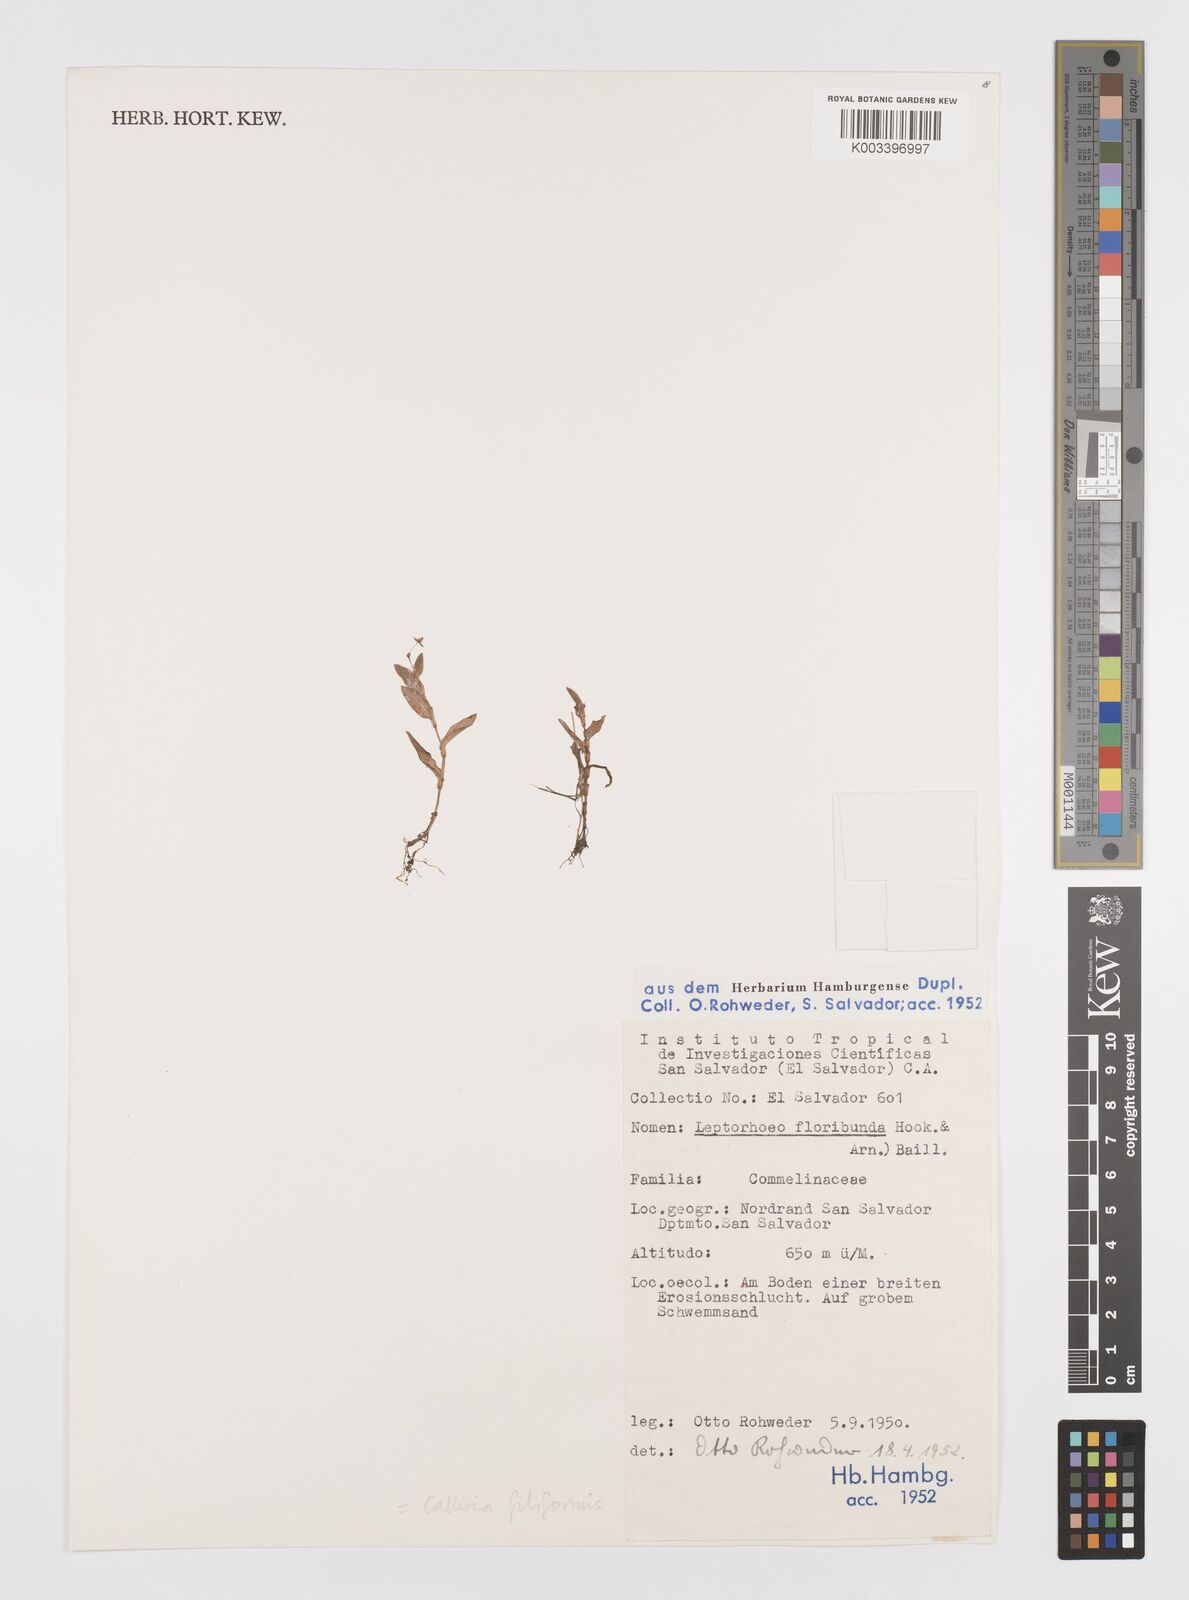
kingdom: Plantae
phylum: Tracheophyta
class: Liliopsida
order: Commelinales
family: Commelinaceae
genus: Callisia
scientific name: Callisia filiformis
